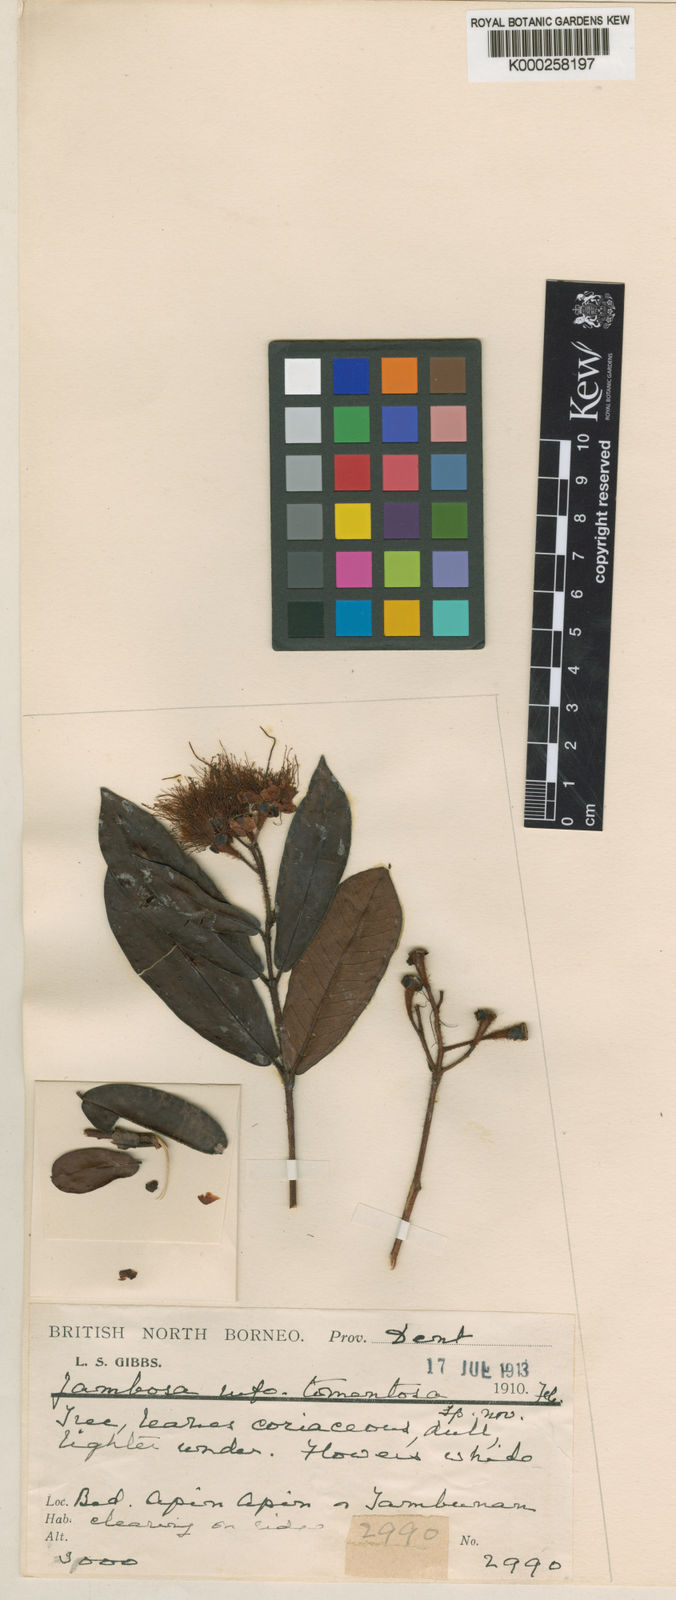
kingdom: Plantae
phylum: Tracheophyta
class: Magnoliopsida
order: Myrtales
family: Myrtaceae
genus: Syzygium
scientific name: Syzygium hirtum
